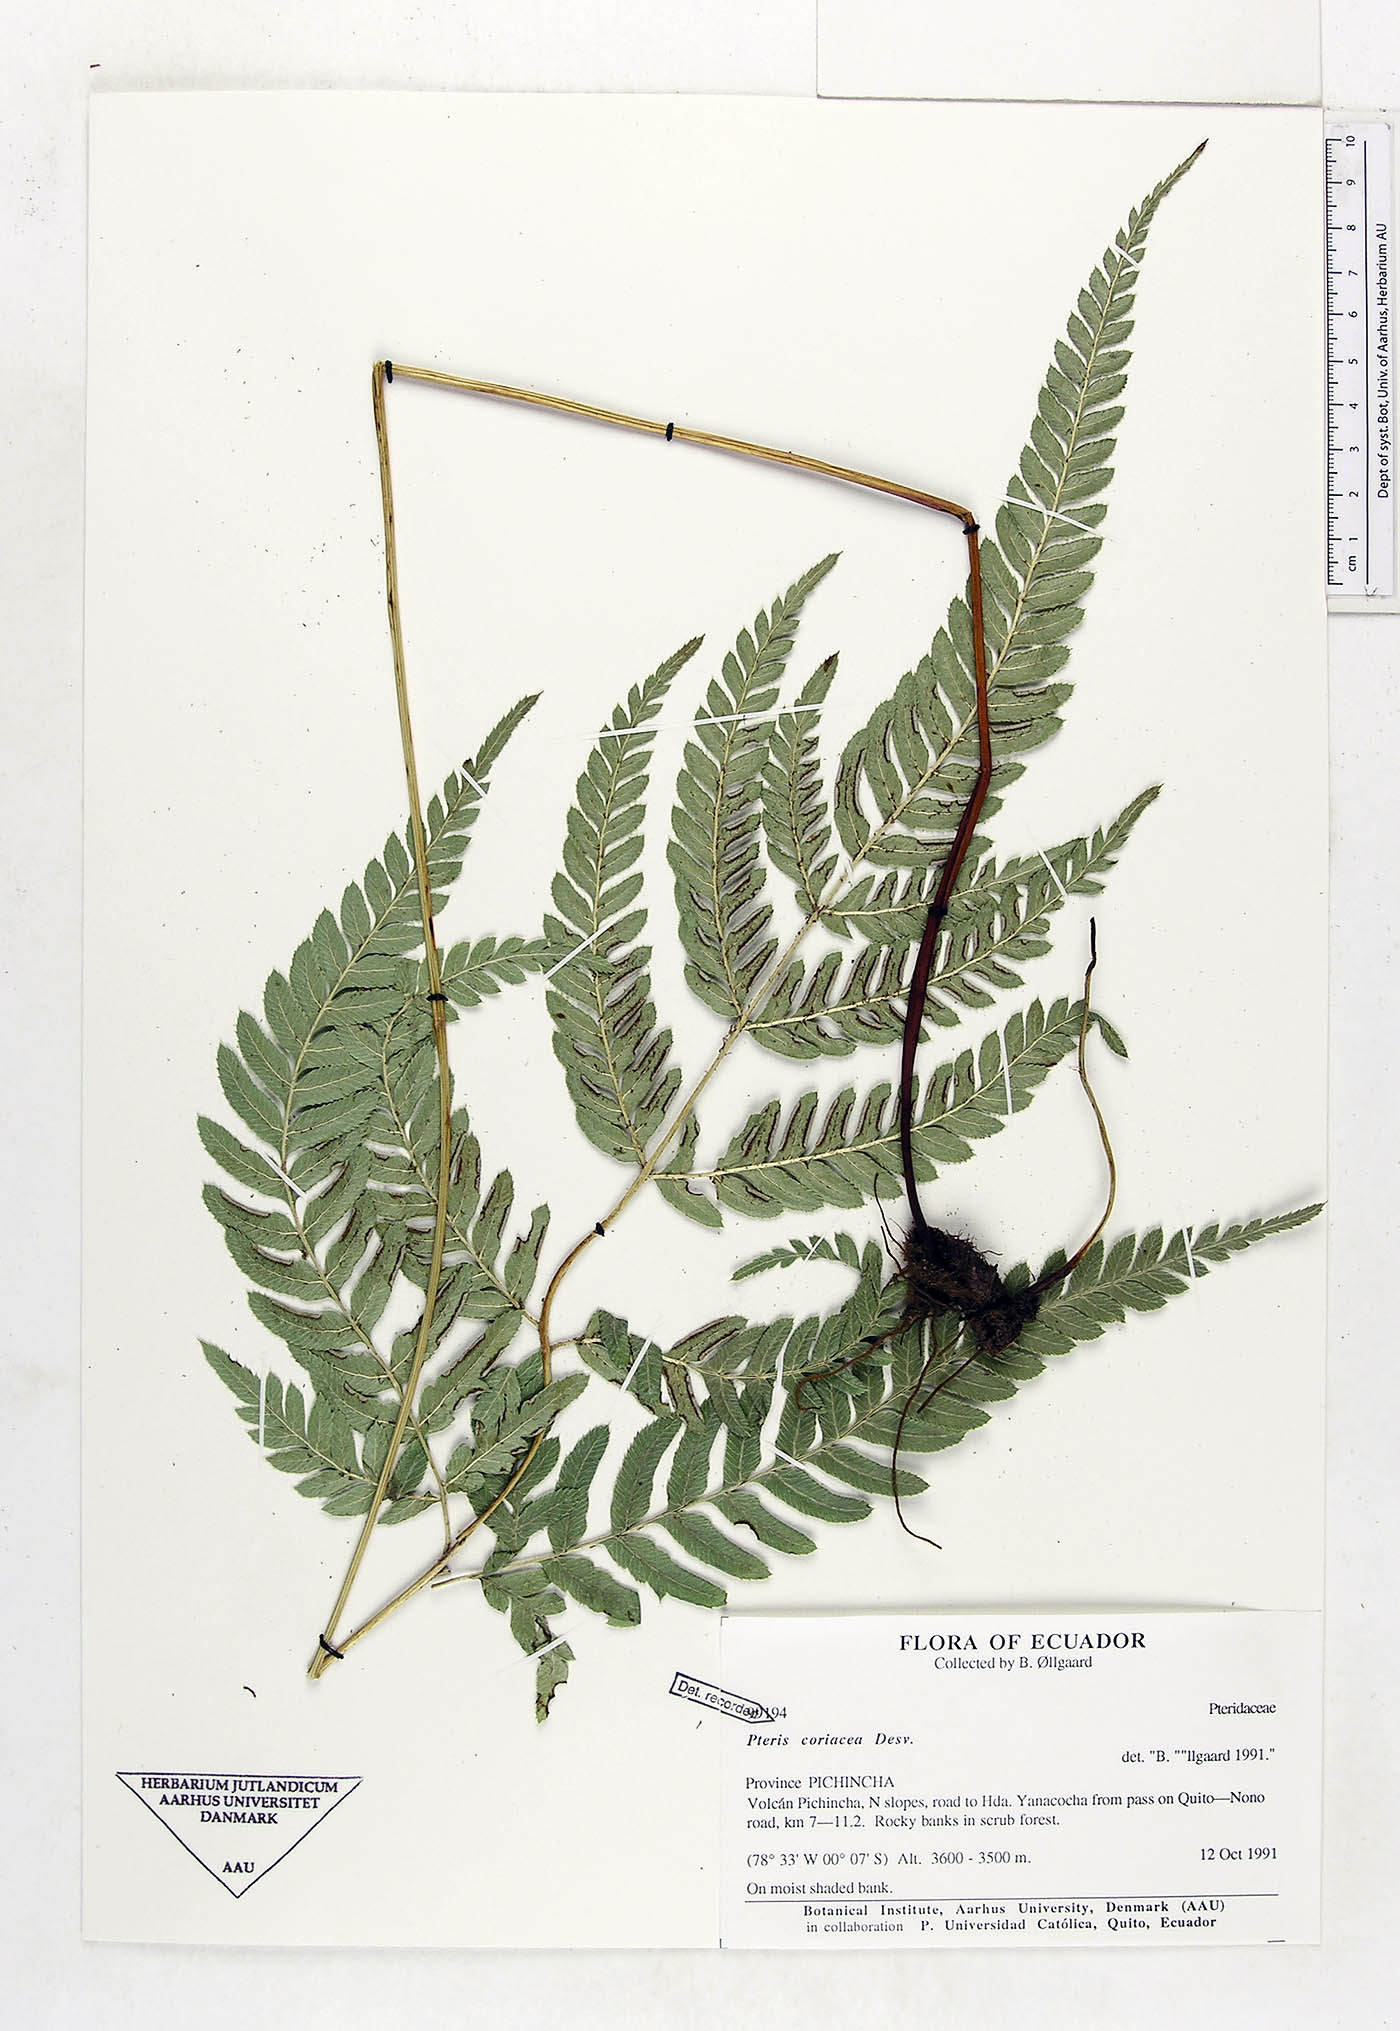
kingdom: Plantae
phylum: Tracheophyta
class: Polypodiopsida
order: Polypodiales
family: Pteridaceae
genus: Pteris
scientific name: Pteris coriacea
